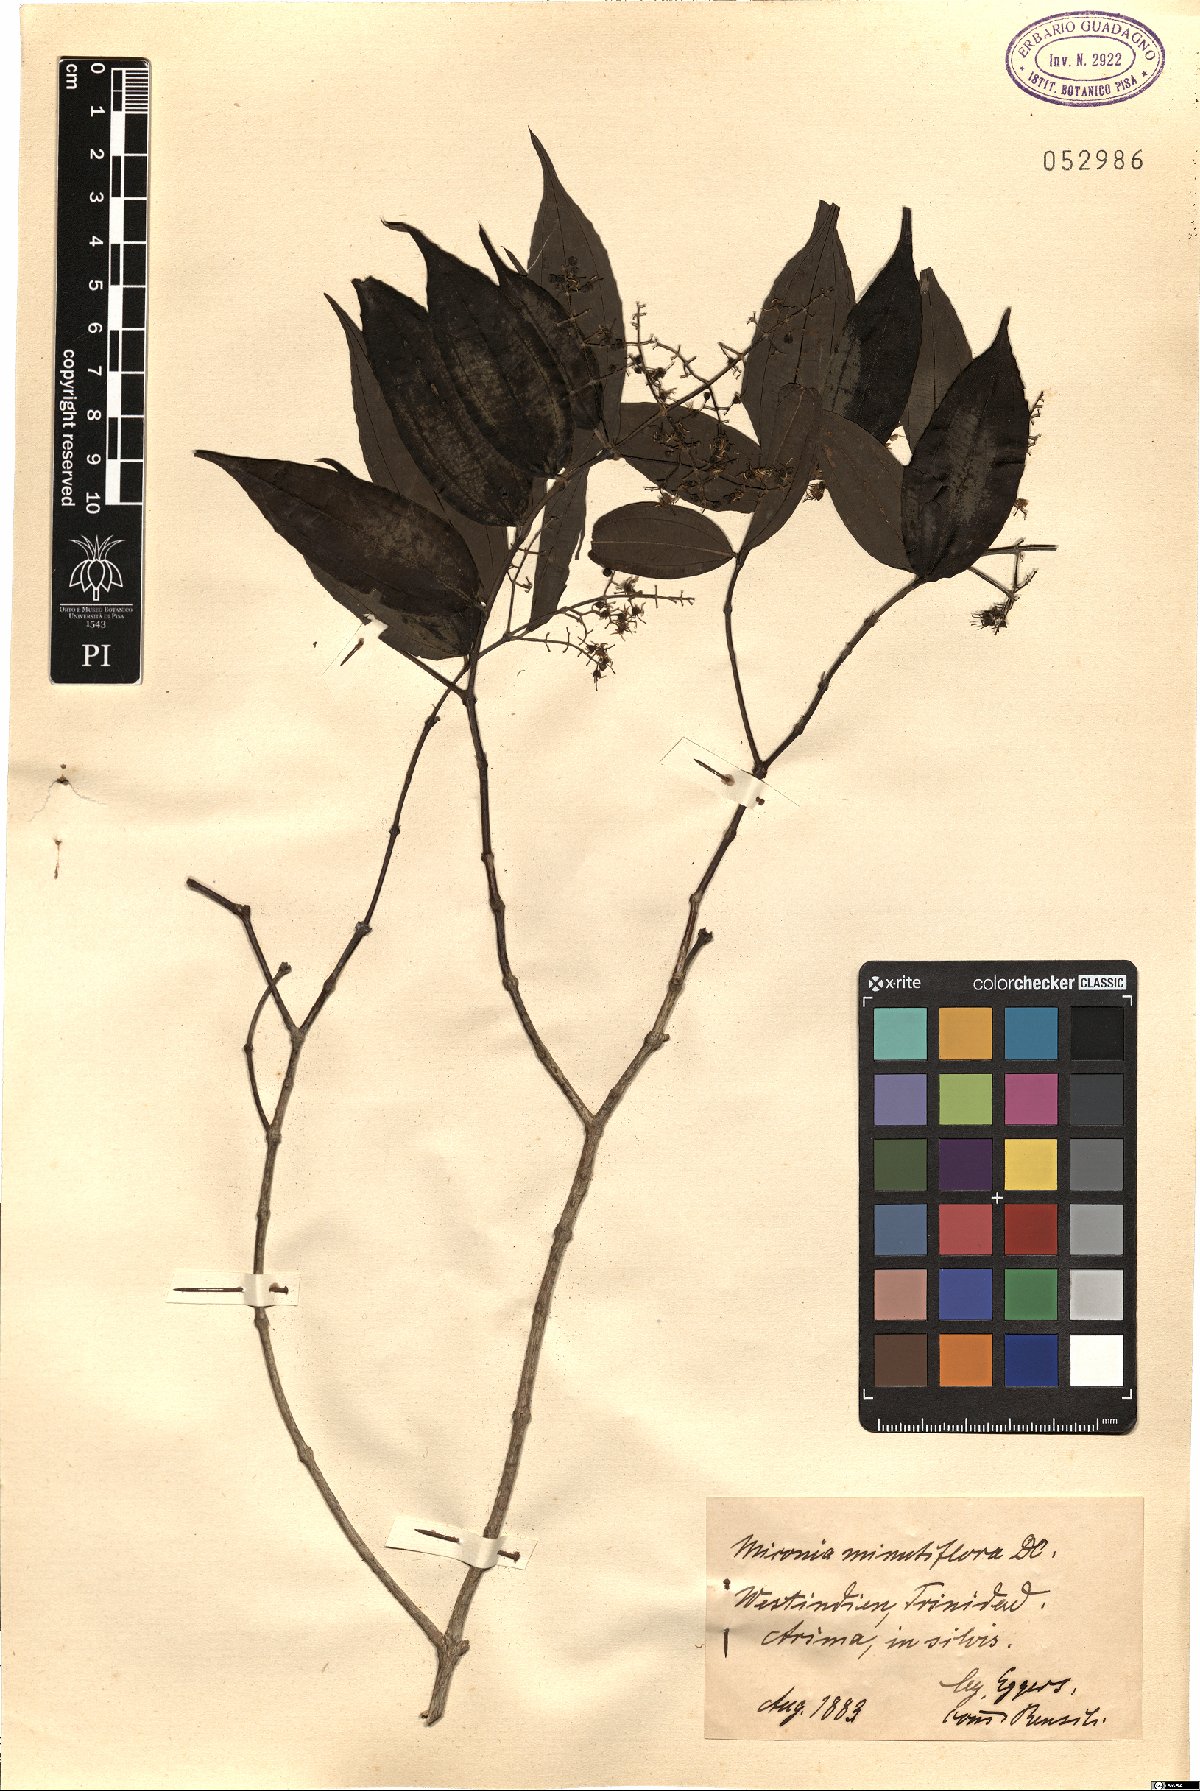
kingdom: Plantae
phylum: Tracheophyta
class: Magnoliopsida
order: Myrtales
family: Melastomataceae
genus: Miconia
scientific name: Miconia minutiflora
